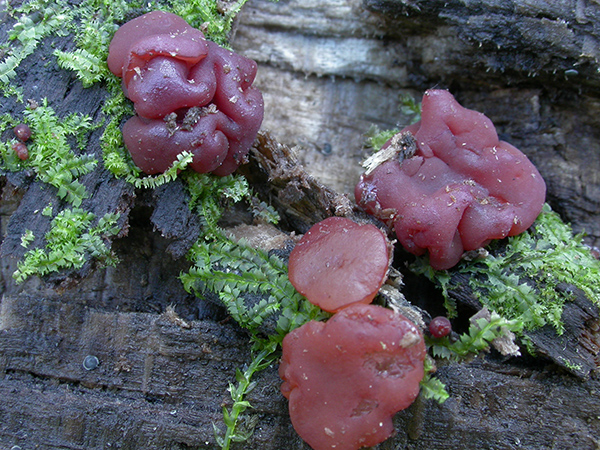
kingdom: Fungi
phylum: Ascomycota
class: Leotiomycetes
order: Helotiales
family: Gelatinodiscaceae
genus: Ascocoryne
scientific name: Ascocoryne inflata
